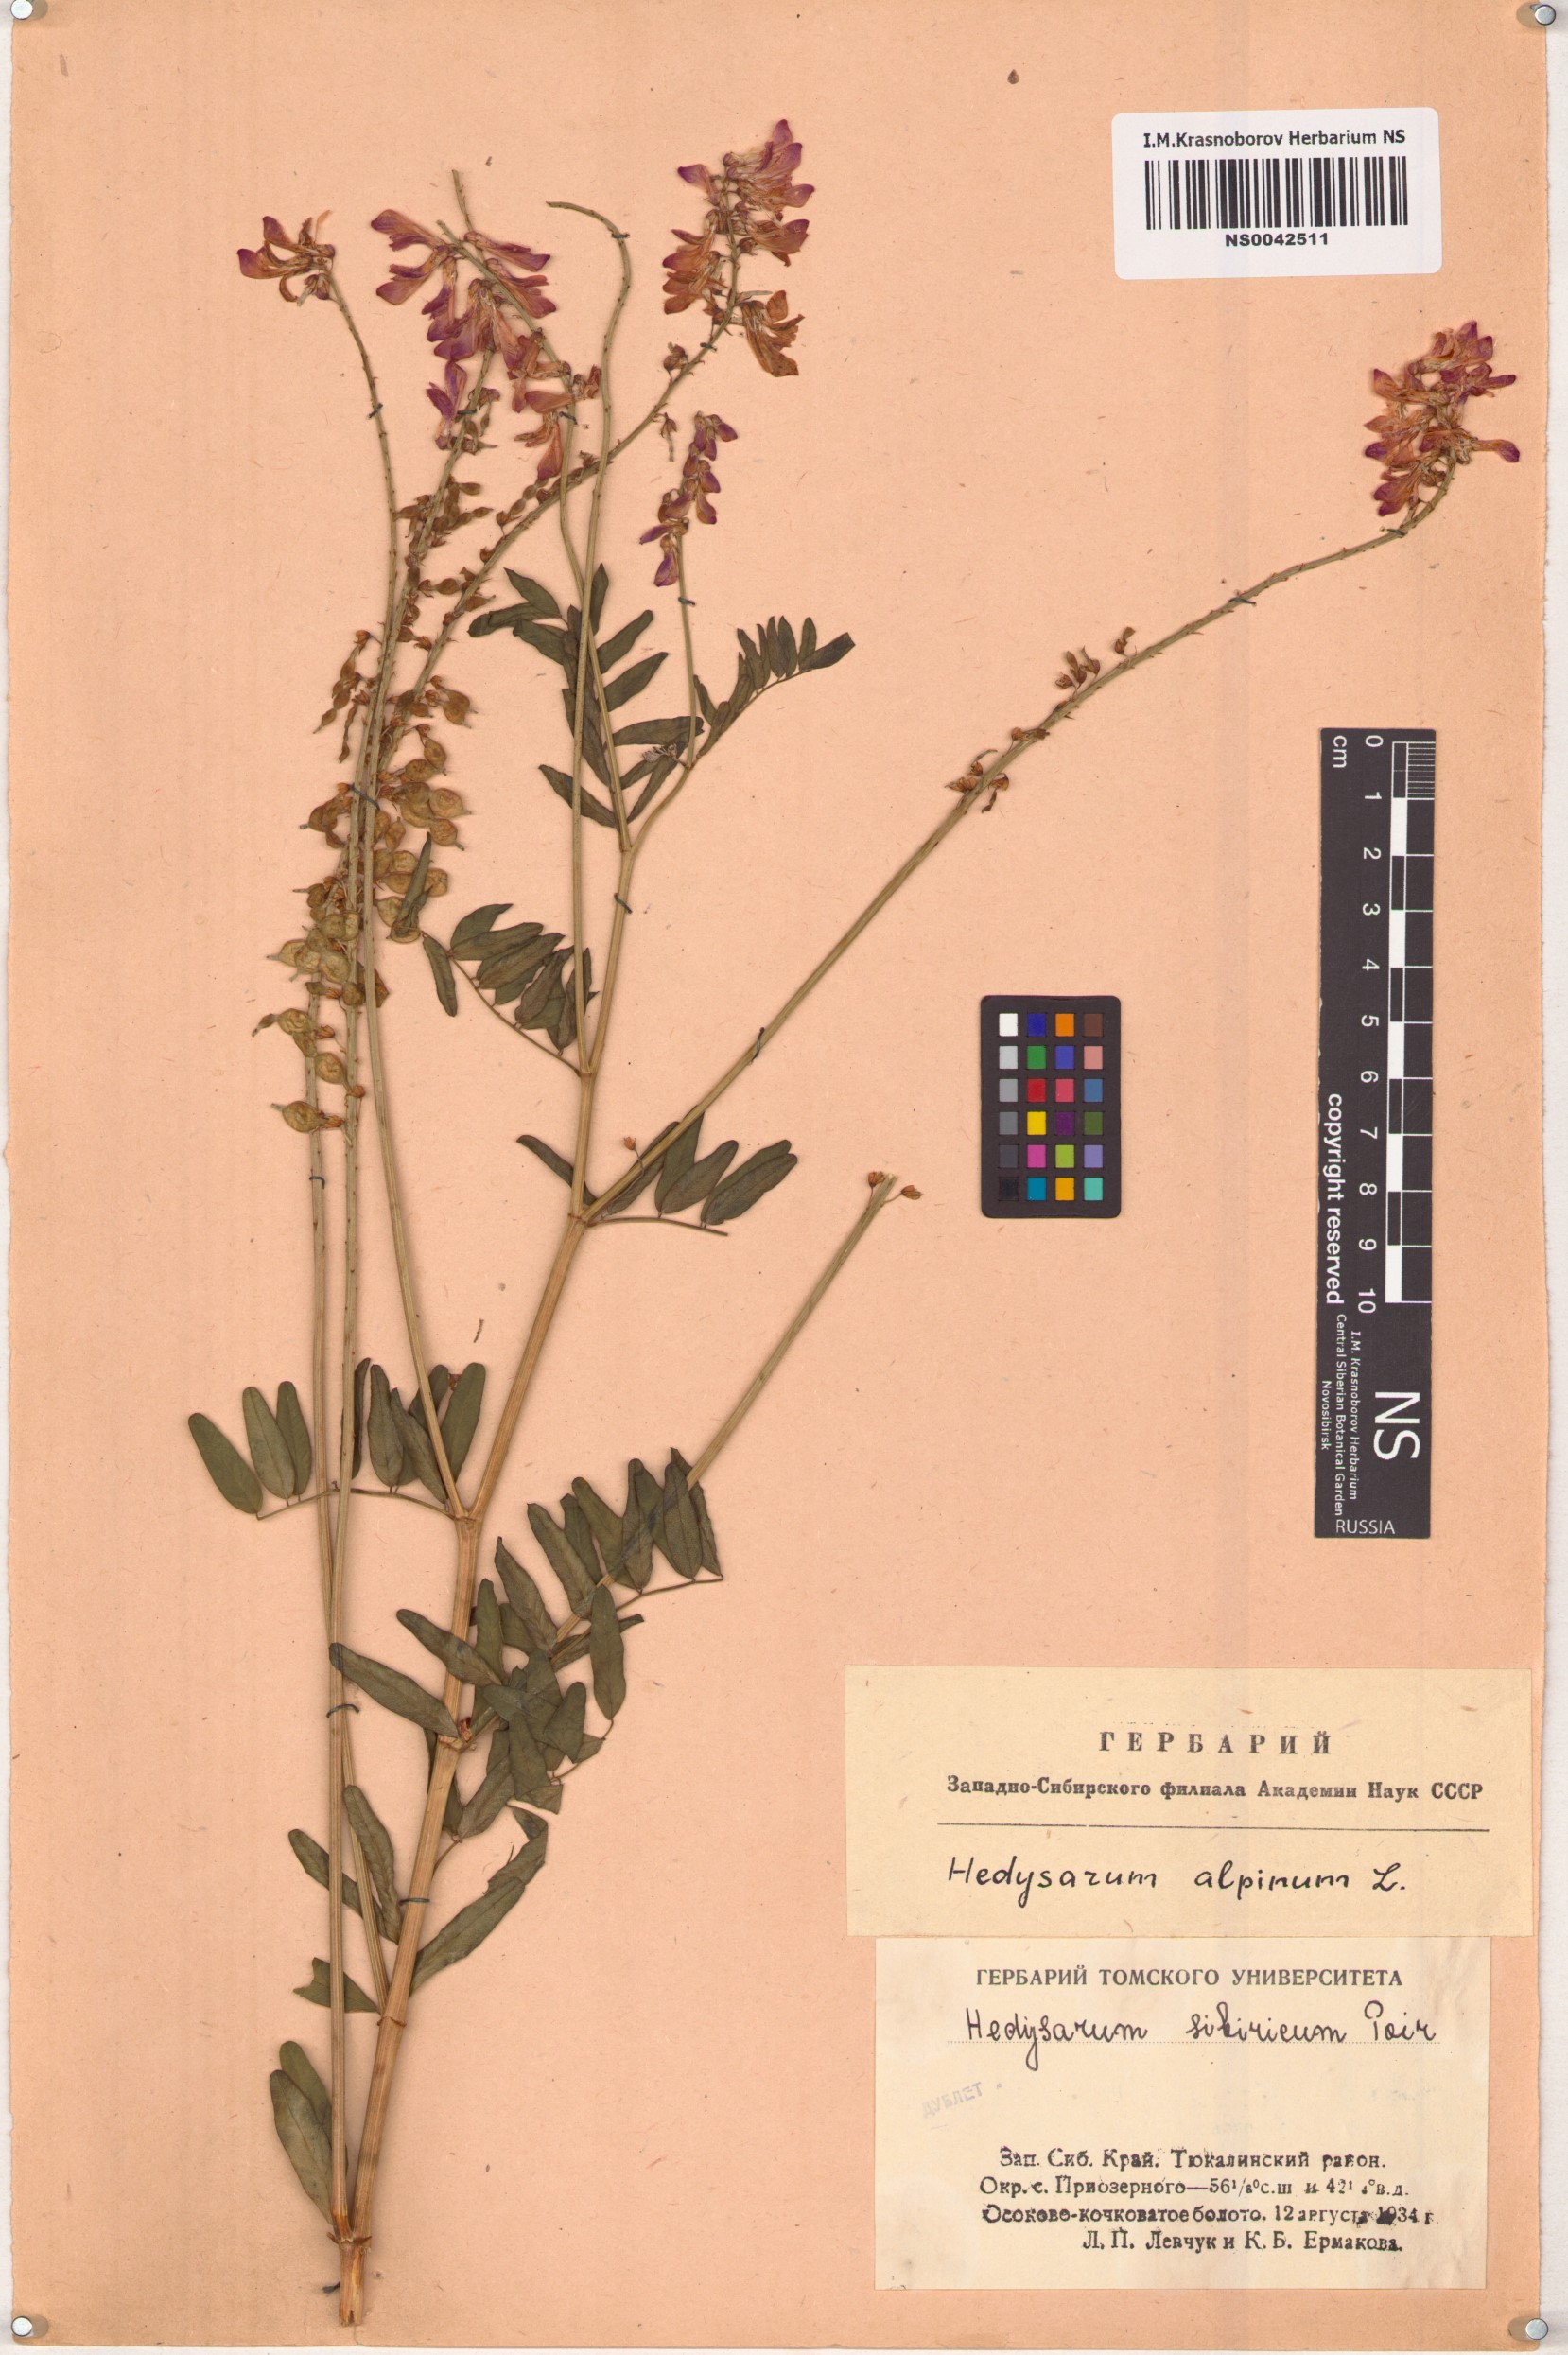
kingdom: Plantae
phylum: Tracheophyta
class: Magnoliopsida
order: Fabales
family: Fabaceae
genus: Hedysarum
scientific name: Hedysarum alpinum
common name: Alpine sweet-vetch
